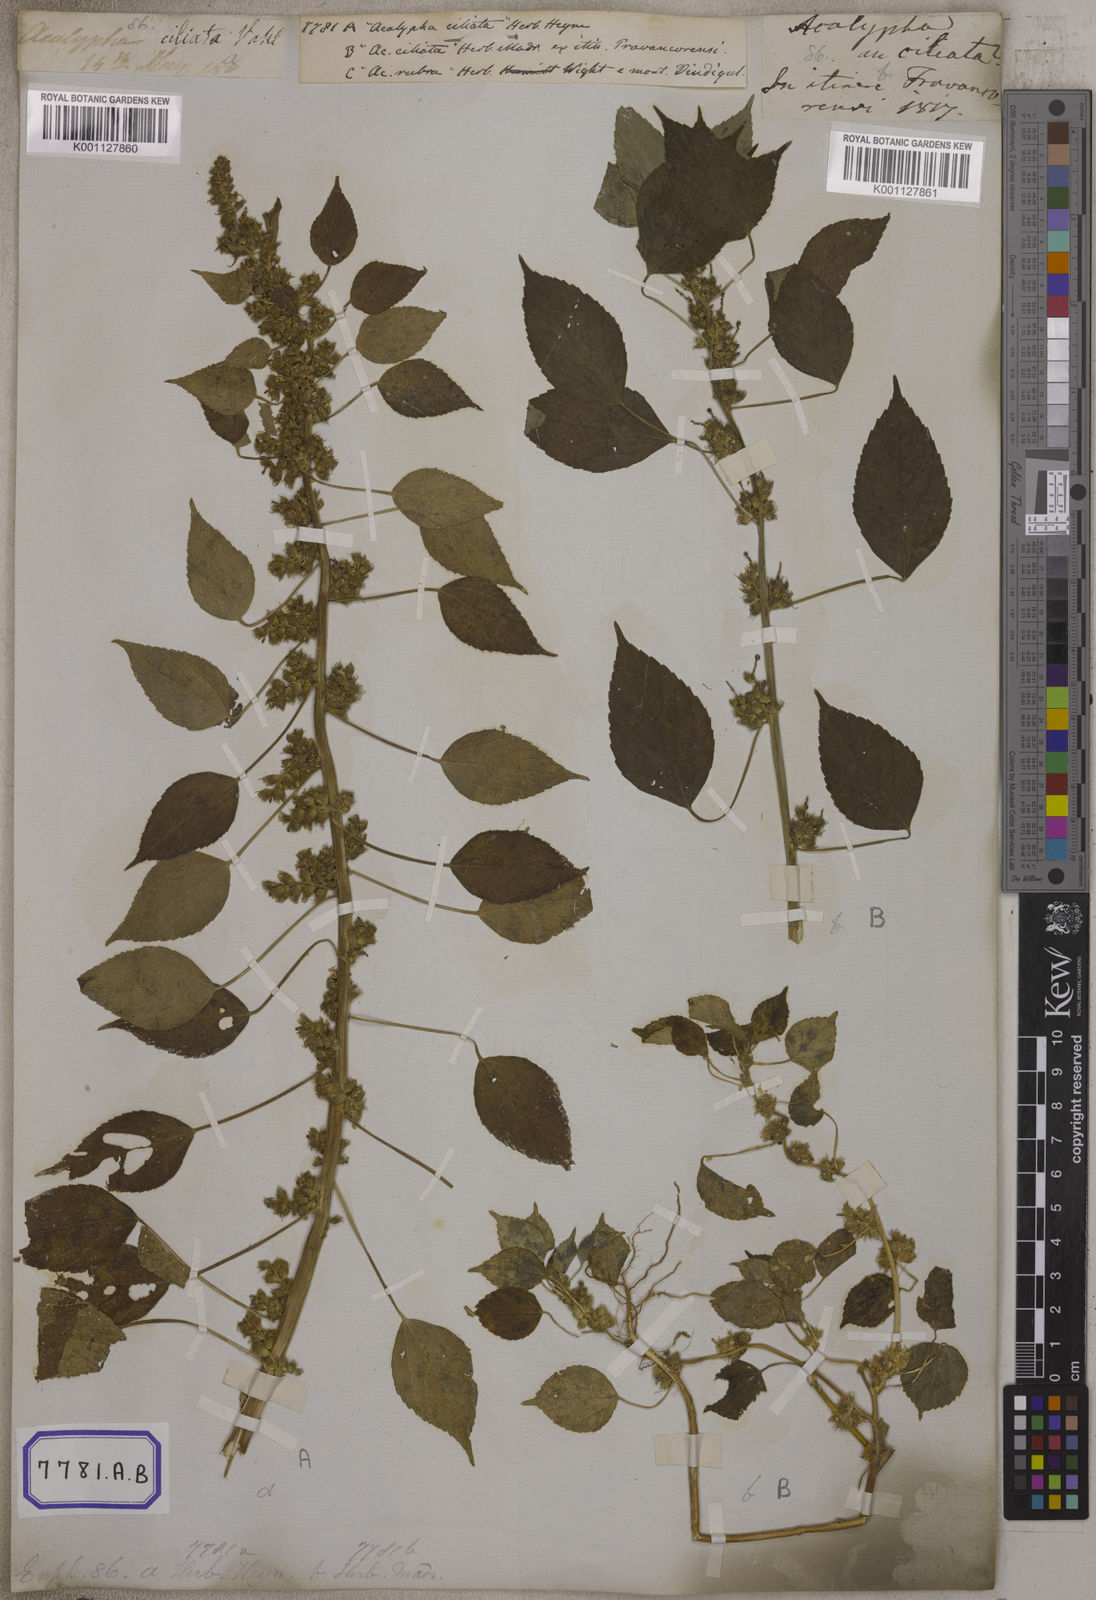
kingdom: Plantae
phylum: Tracheophyta
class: Magnoliopsida
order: Malpighiales
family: Euphorbiaceae
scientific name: Euphorbiaceae
